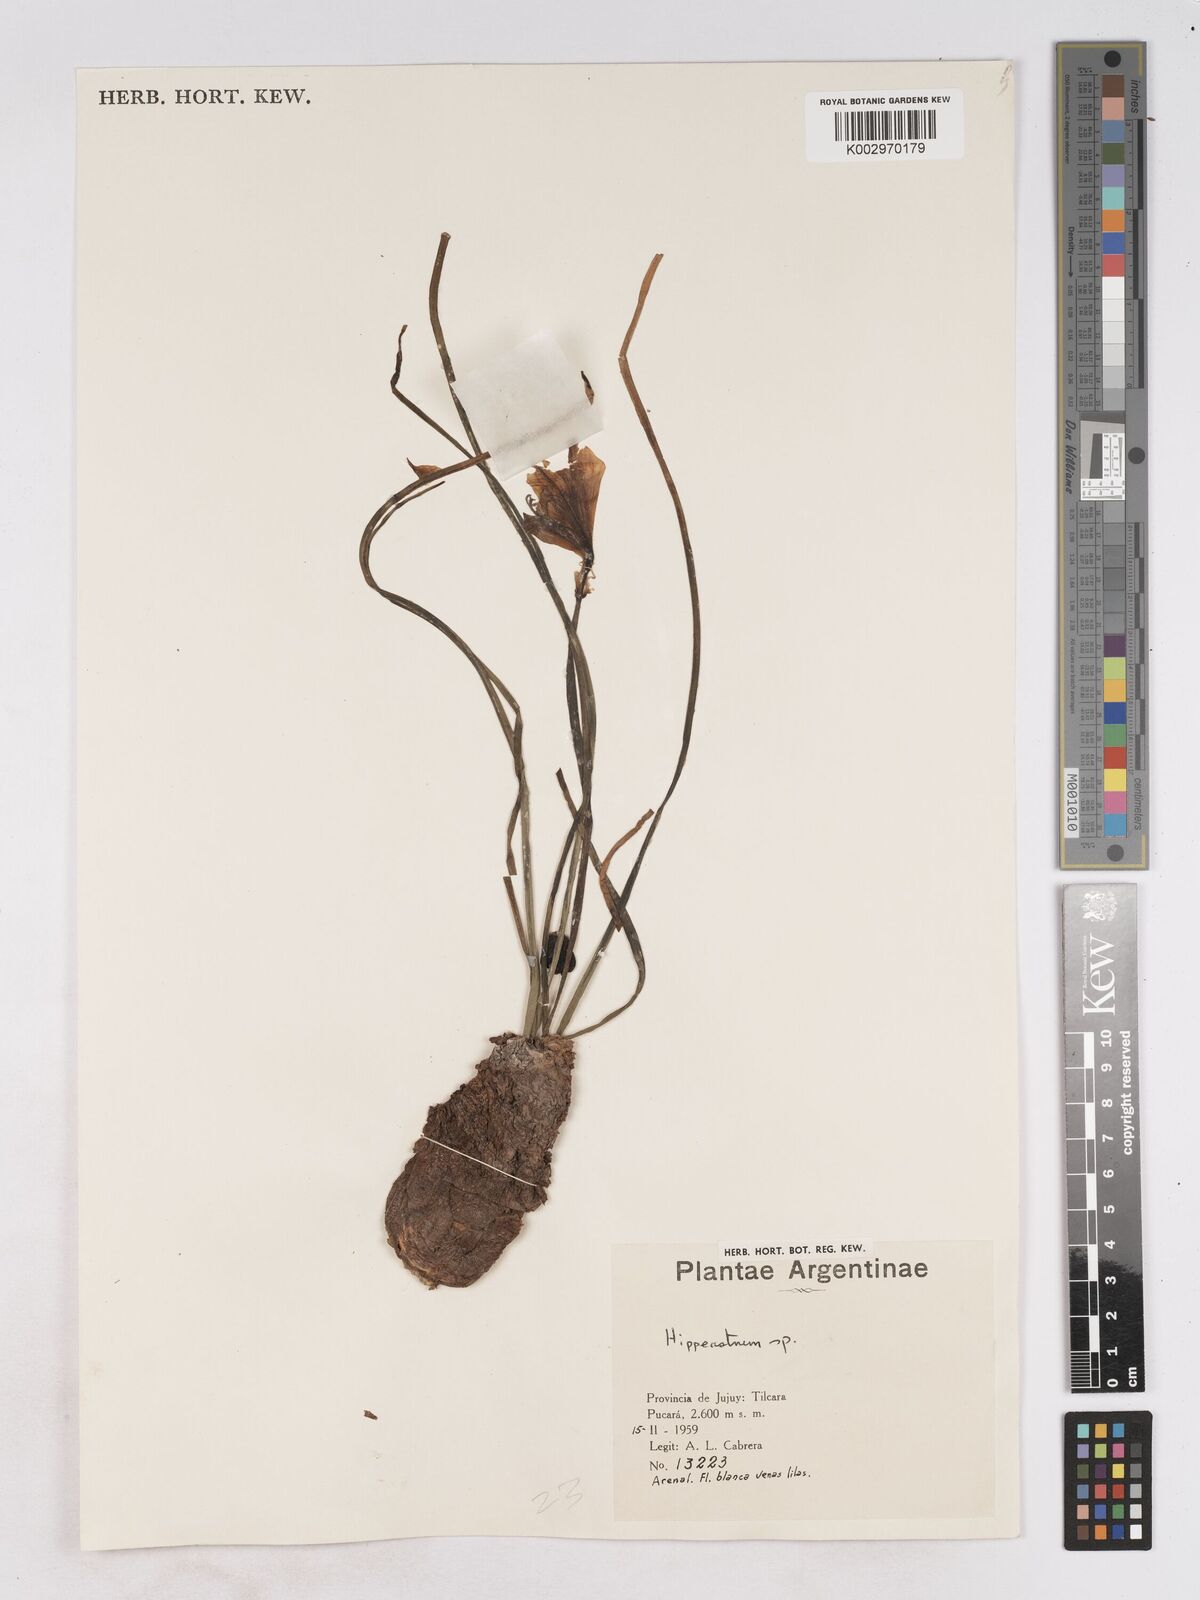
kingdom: Plantae
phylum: Tracheophyta
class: Liliopsida
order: Asparagales
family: Amaryllidaceae
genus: Hippeastrum
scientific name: Hippeastrum
